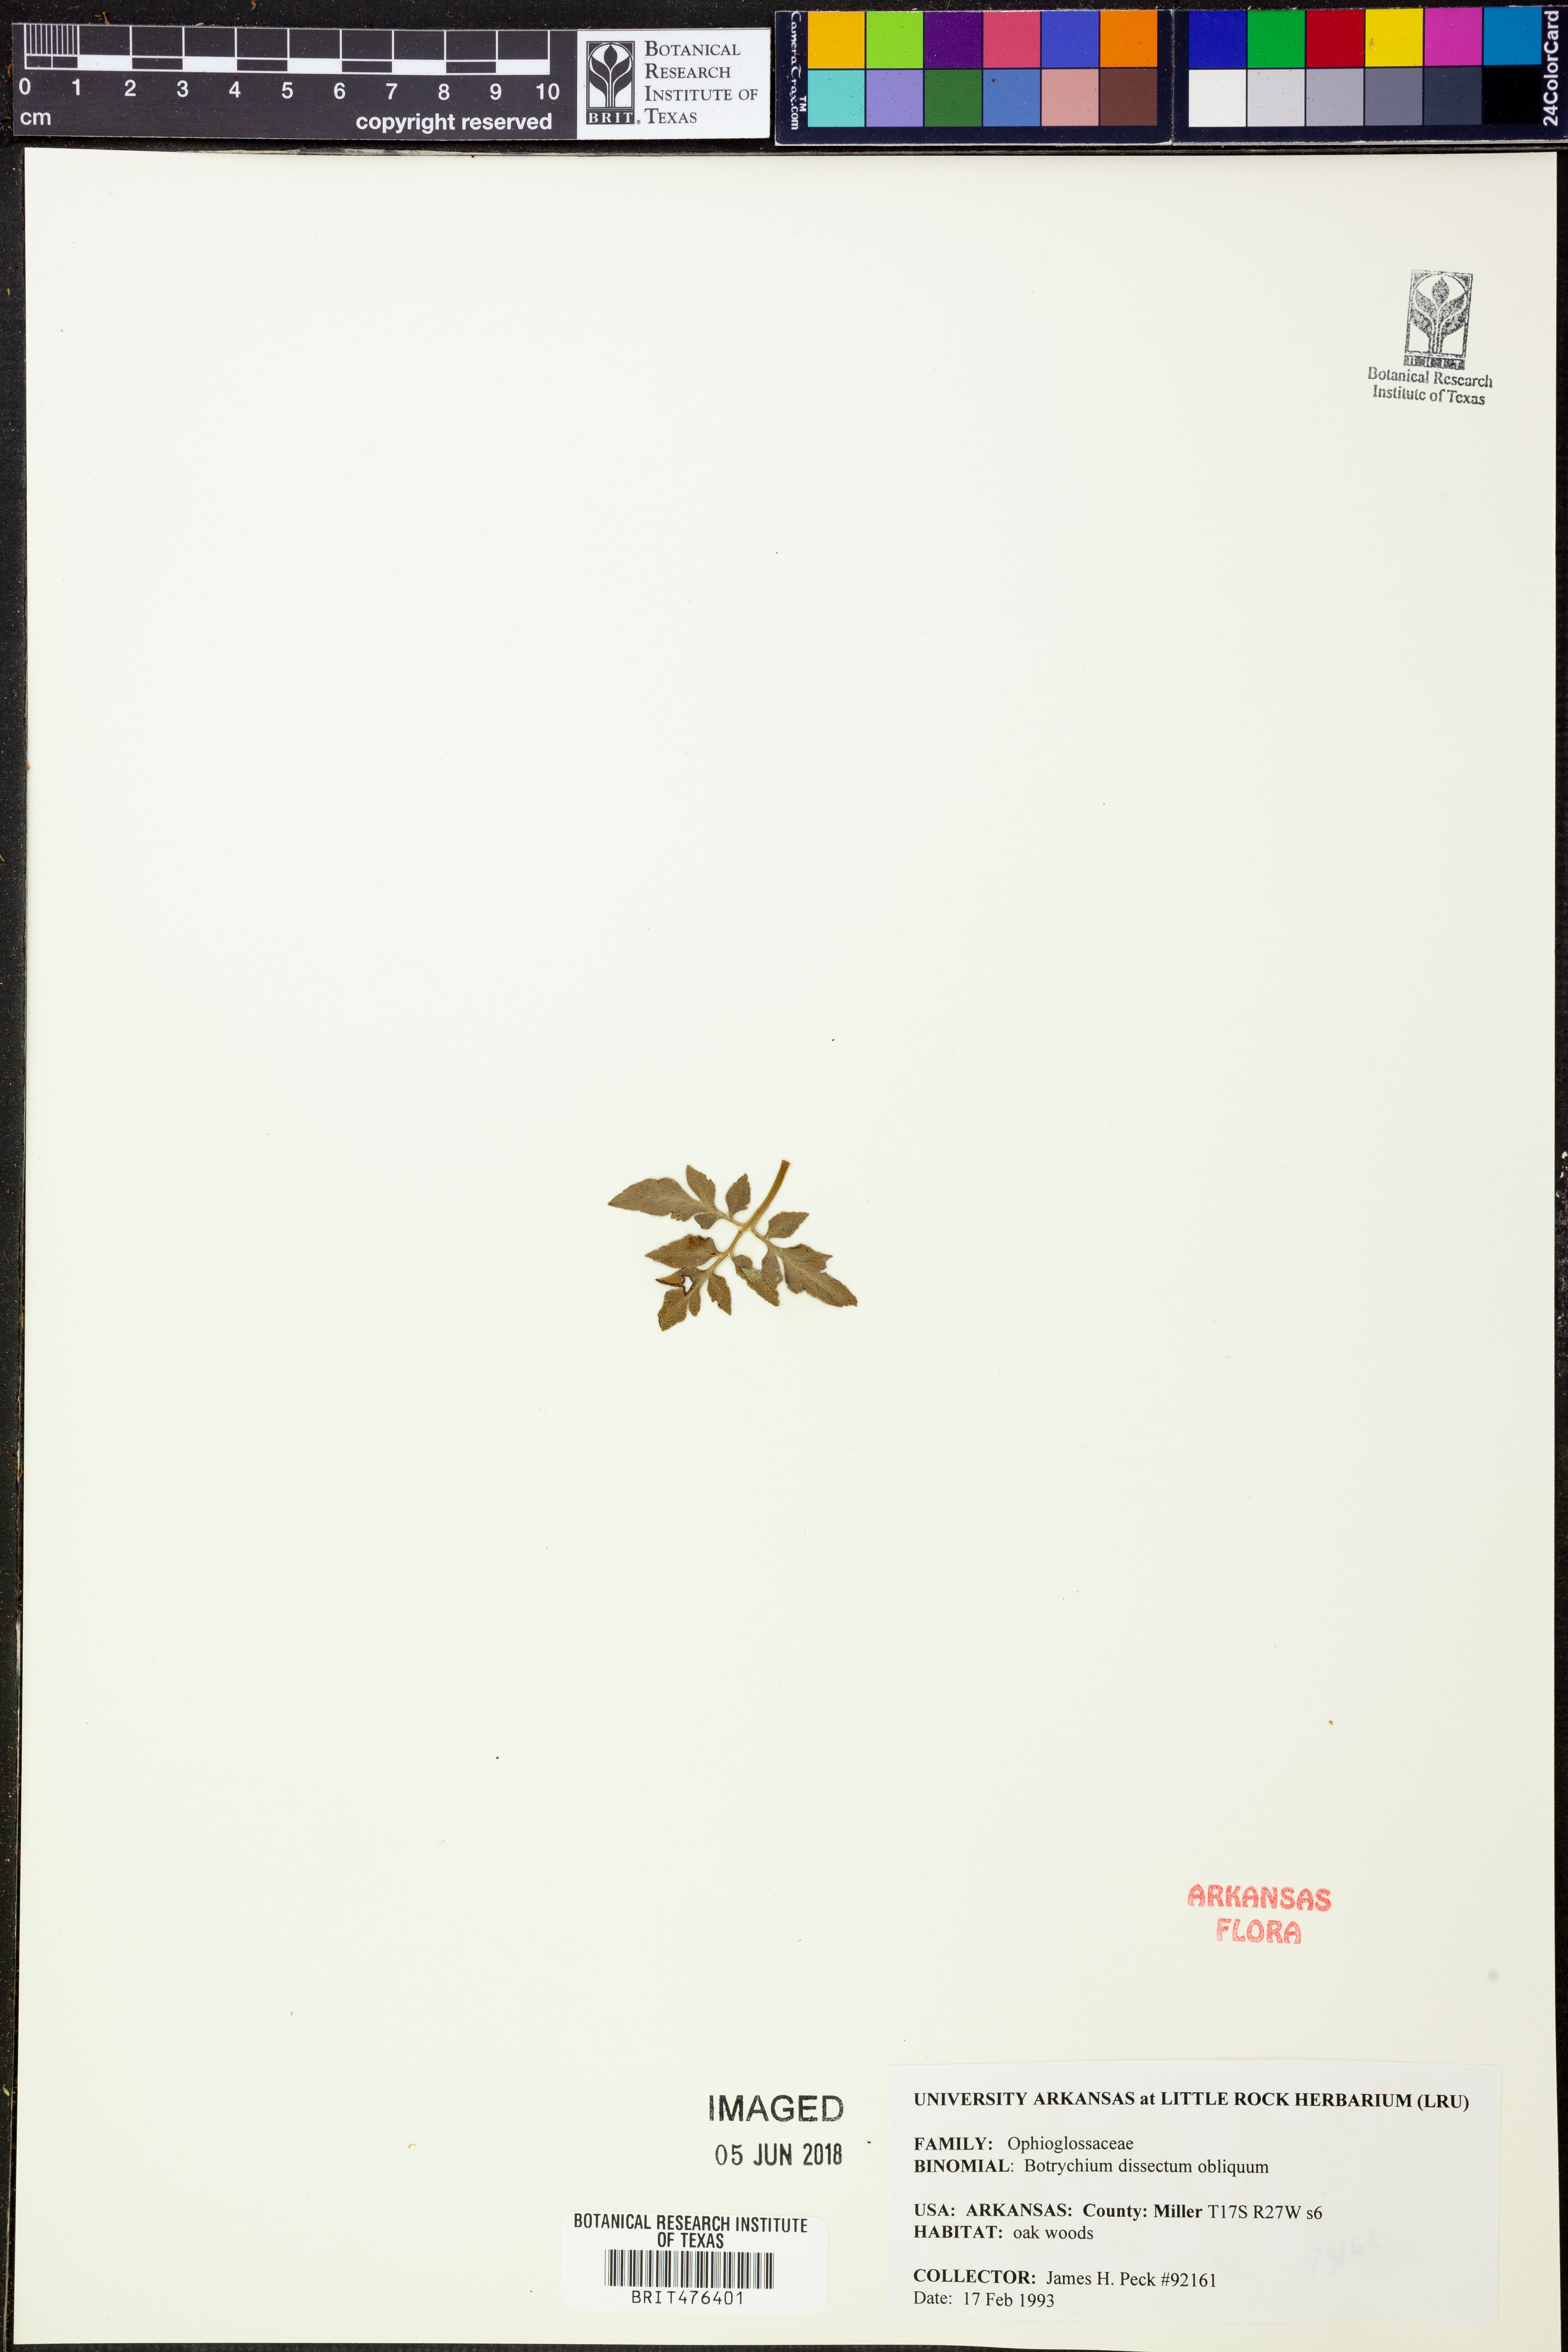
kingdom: Plantae
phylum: Tracheophyta
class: Polypodiopsida
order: Ophioglossales
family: Ophioglossaceae
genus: Sceptridium
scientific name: Sceptridium dissectum
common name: Cut-leaved grapefern
